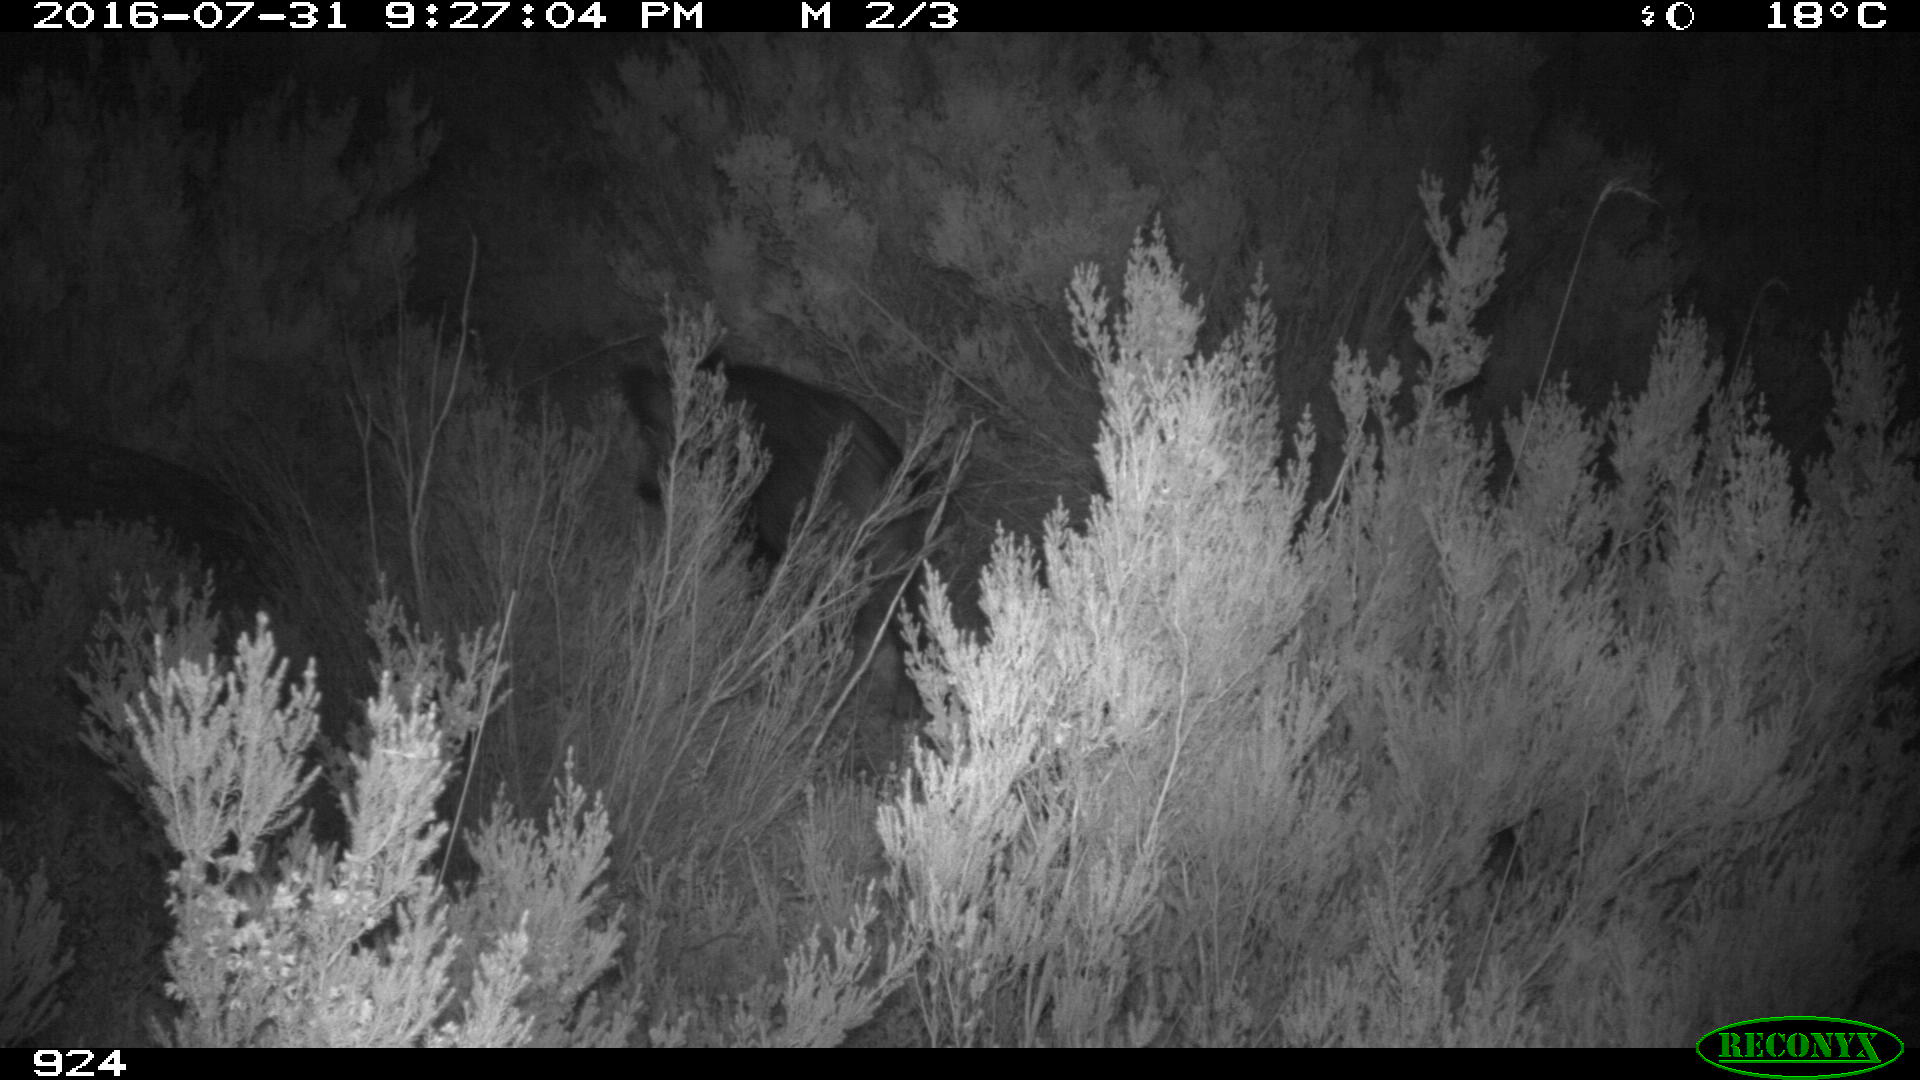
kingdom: Animalia
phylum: Chordata
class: Mammalia
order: Artiodactyla
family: Suidae
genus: Sus
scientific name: Sus scrofa
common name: Wild boar
